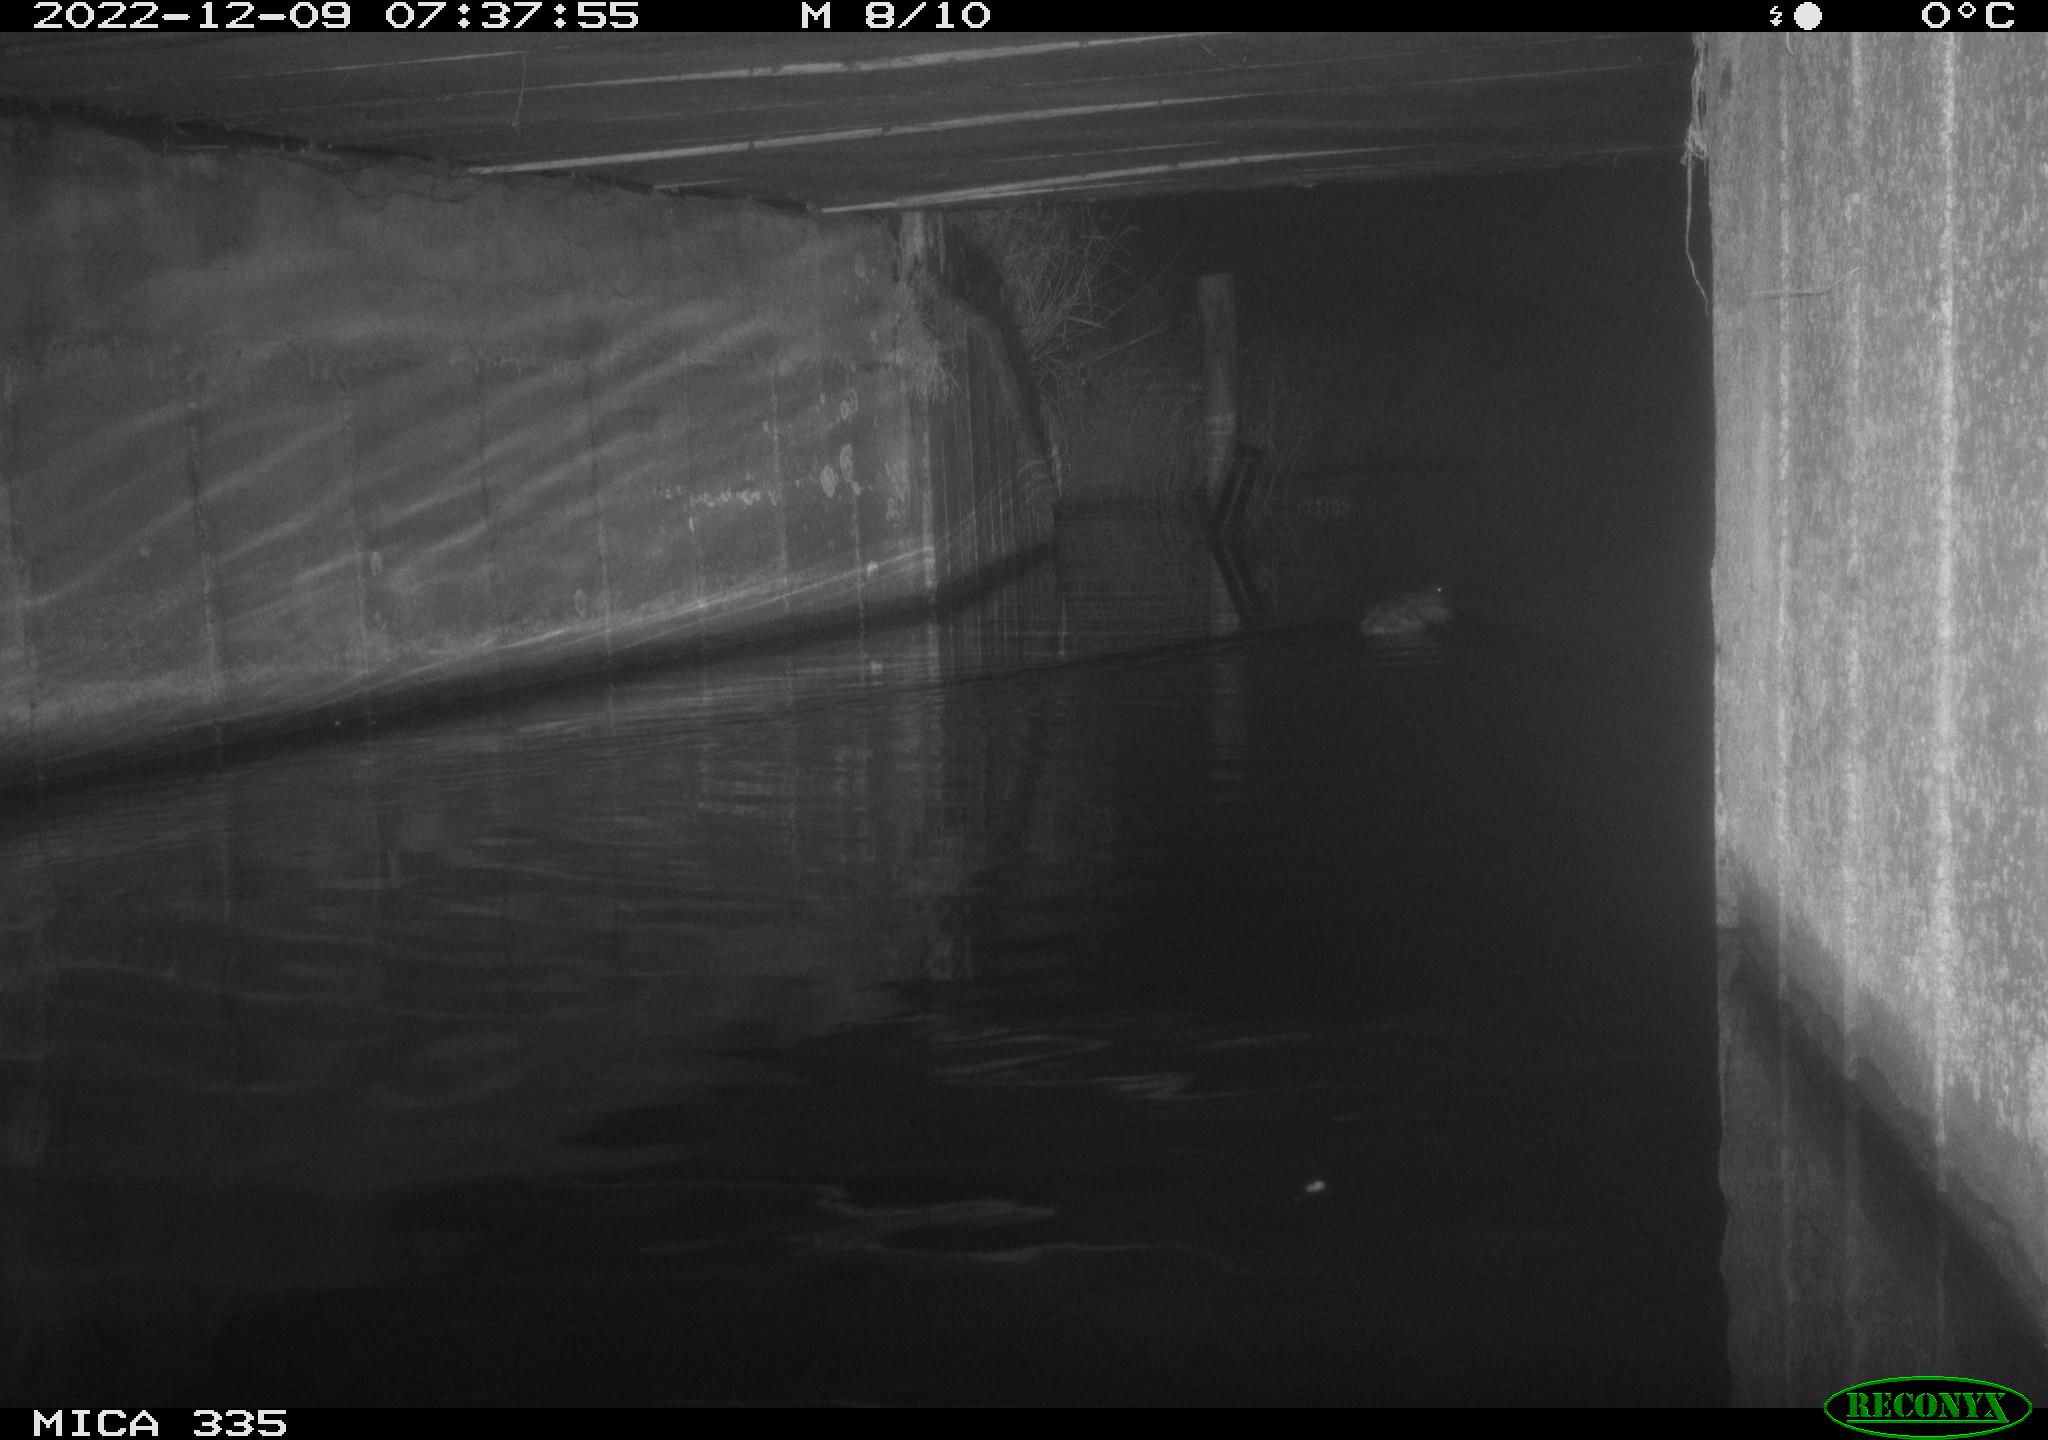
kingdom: Animalia
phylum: Chordata
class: Aves
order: Anseriformes
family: Anatidae
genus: Anas
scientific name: Anas
